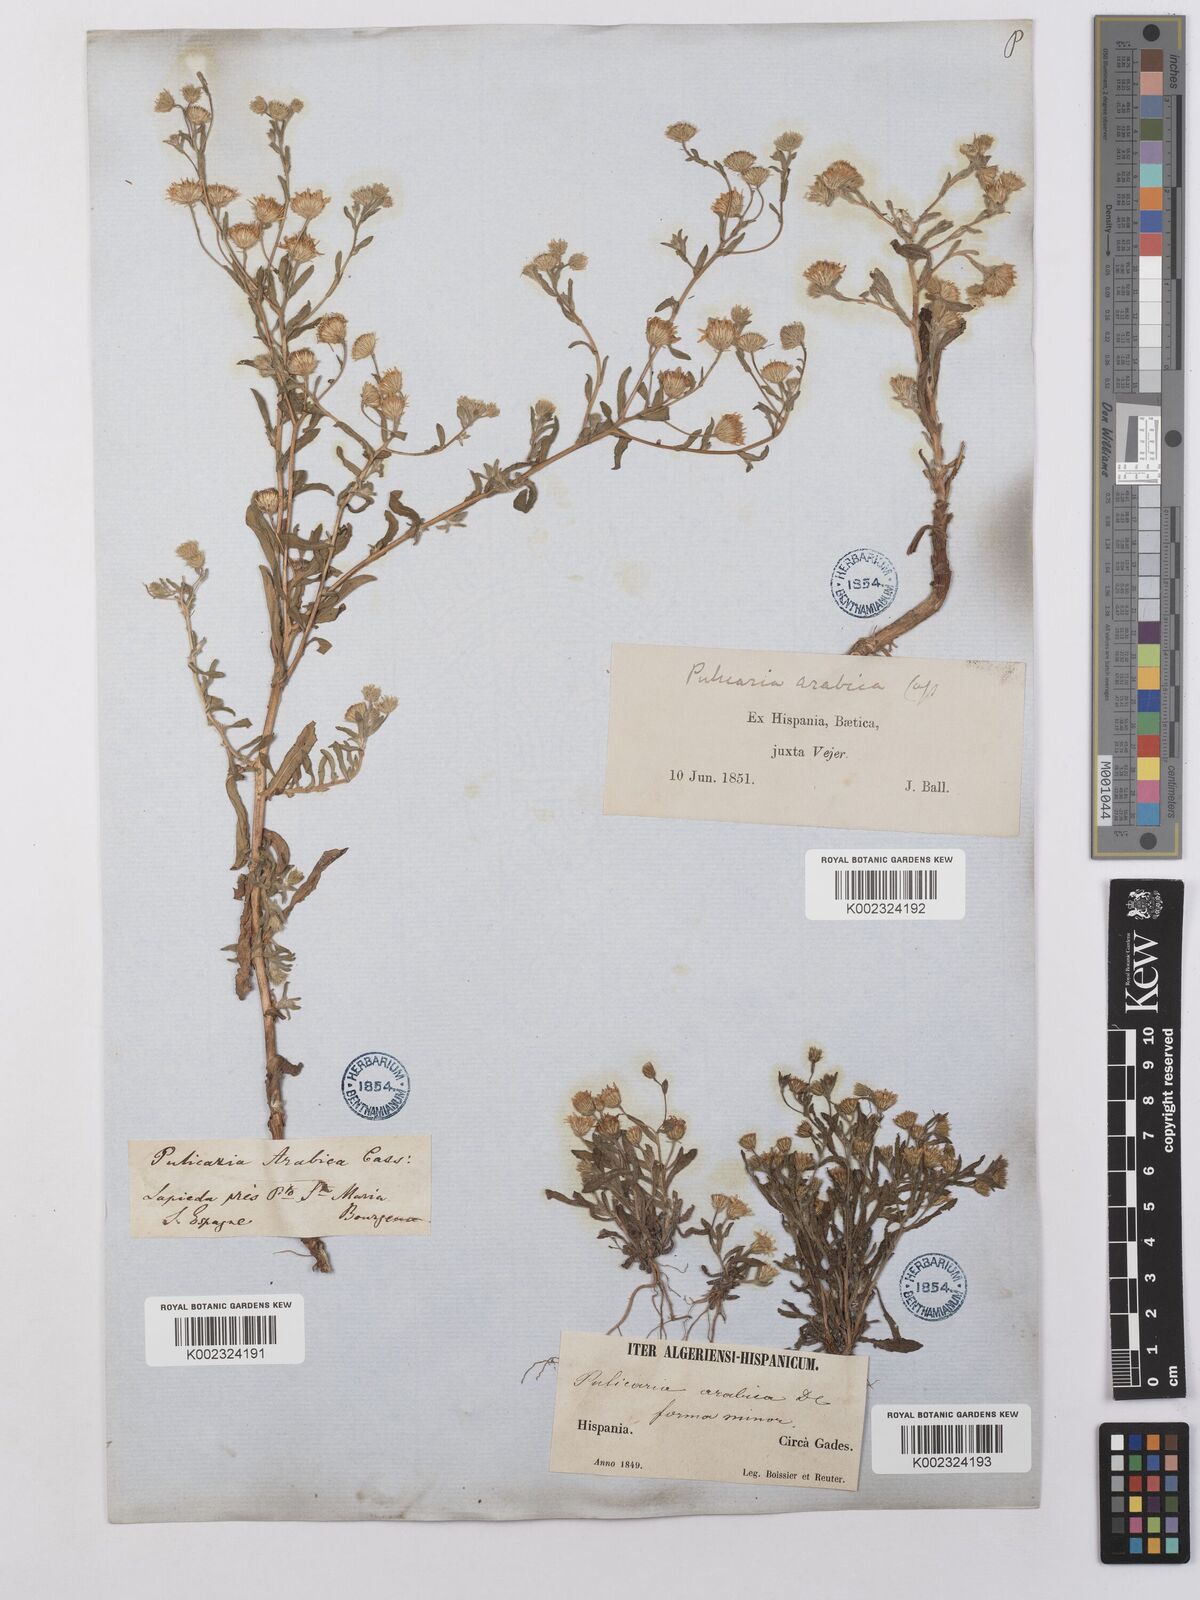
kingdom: Plantae
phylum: Tracheophyta
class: Magnoliopsida
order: Asterales
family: Asteraceae
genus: Pulicaria
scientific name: Pulicaria arabica
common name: Ladies' false fleabane
